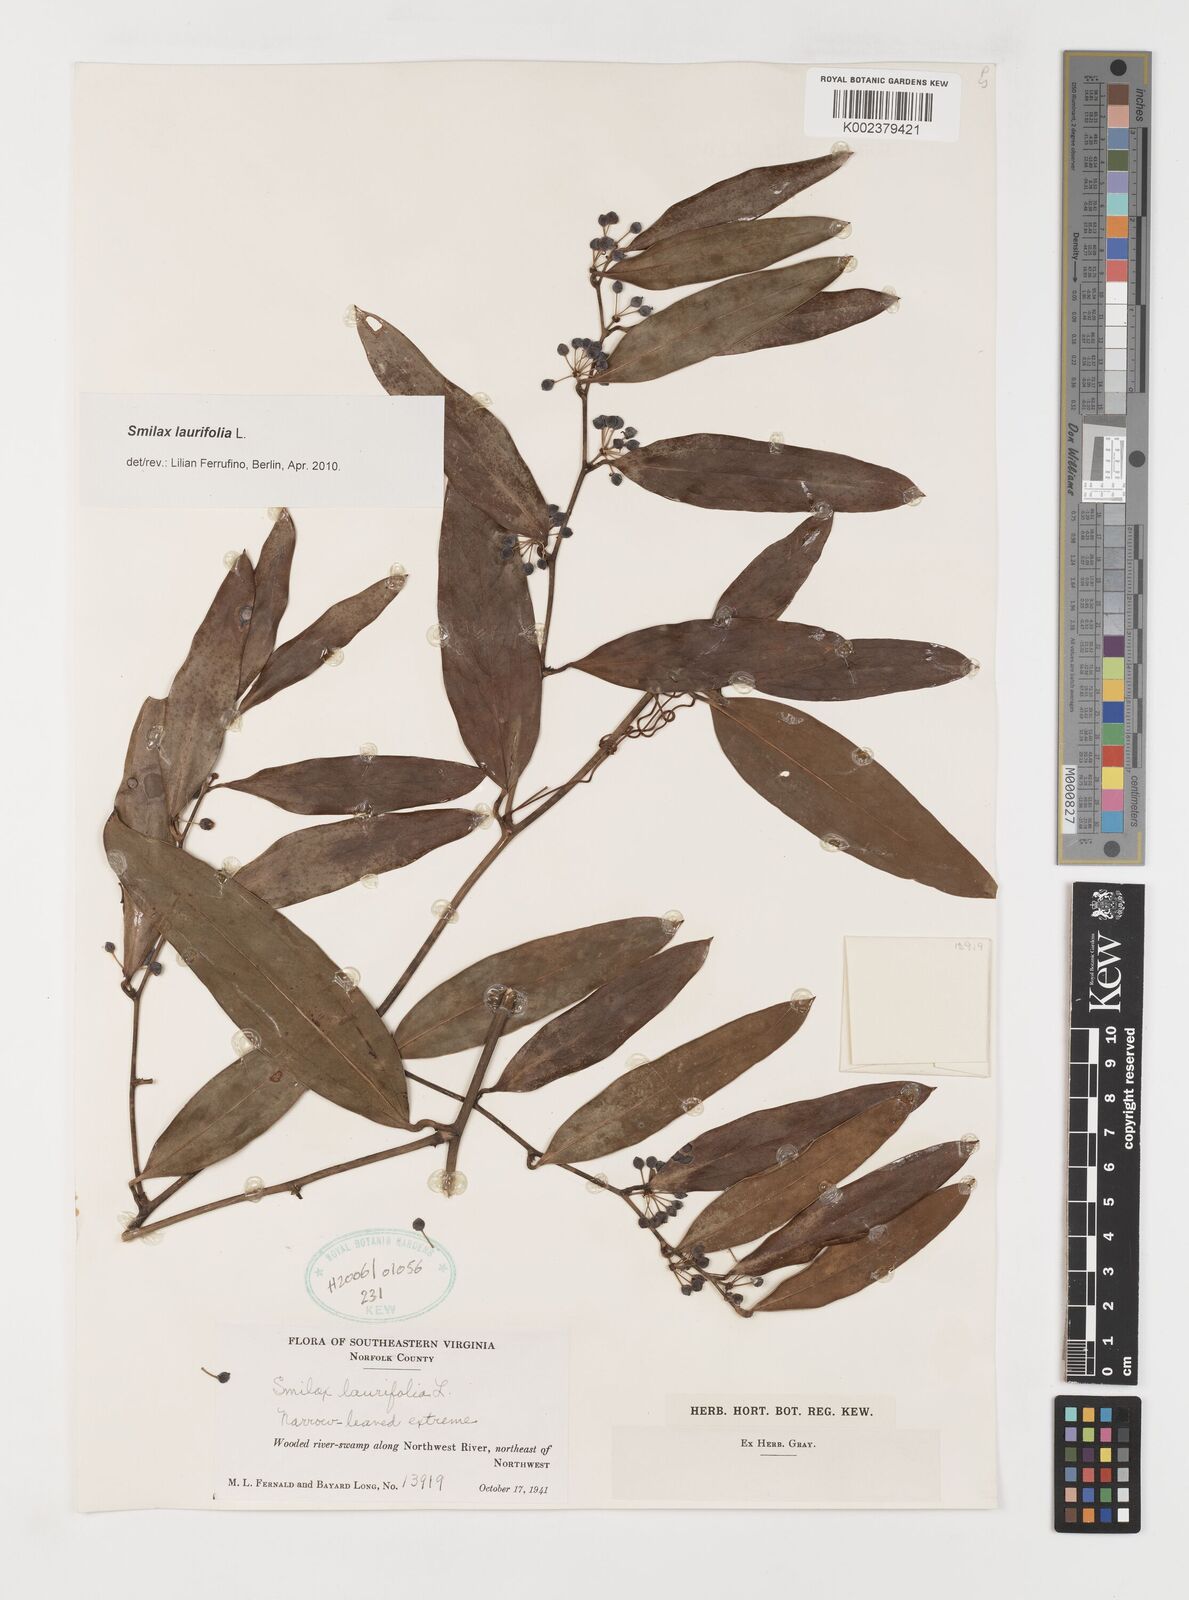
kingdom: Plantae
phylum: Tracheophyta
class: Liliopsida
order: Liliales
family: Smilacaceae
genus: Smilax
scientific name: Smilax laurifolia
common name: Bamboovine
